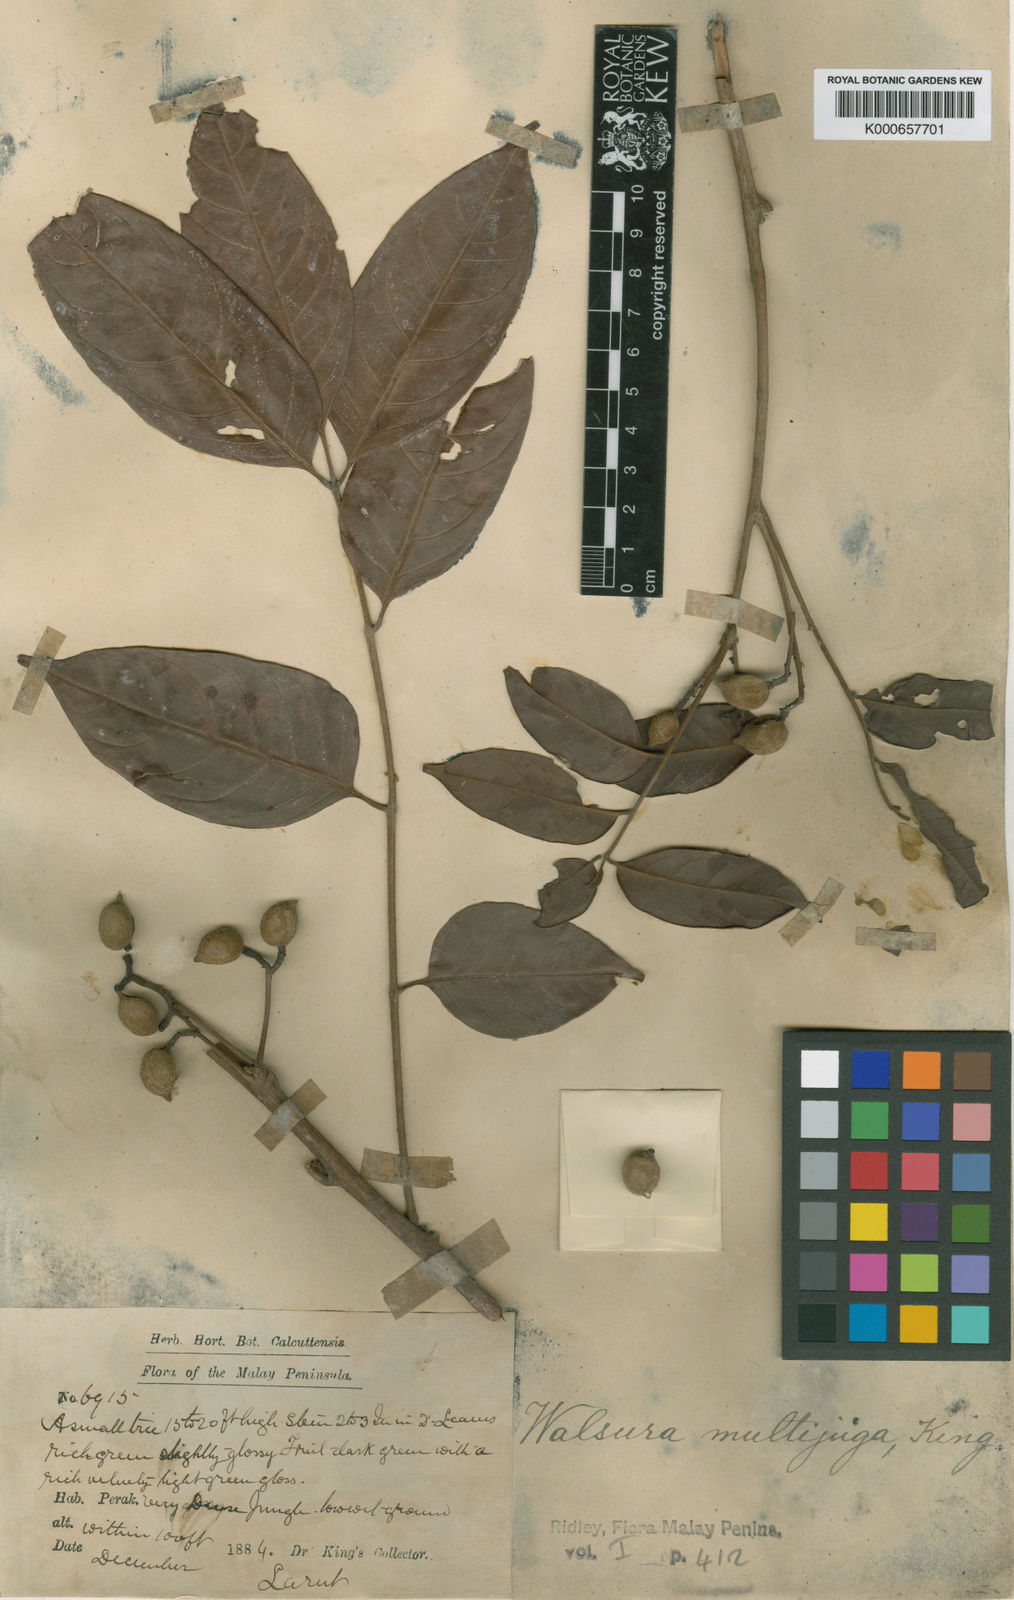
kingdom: Plantae
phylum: Tracheophyta
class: Magnoliopsida
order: Sapindales
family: Meliaceae
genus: Walsura
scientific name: Walsura
